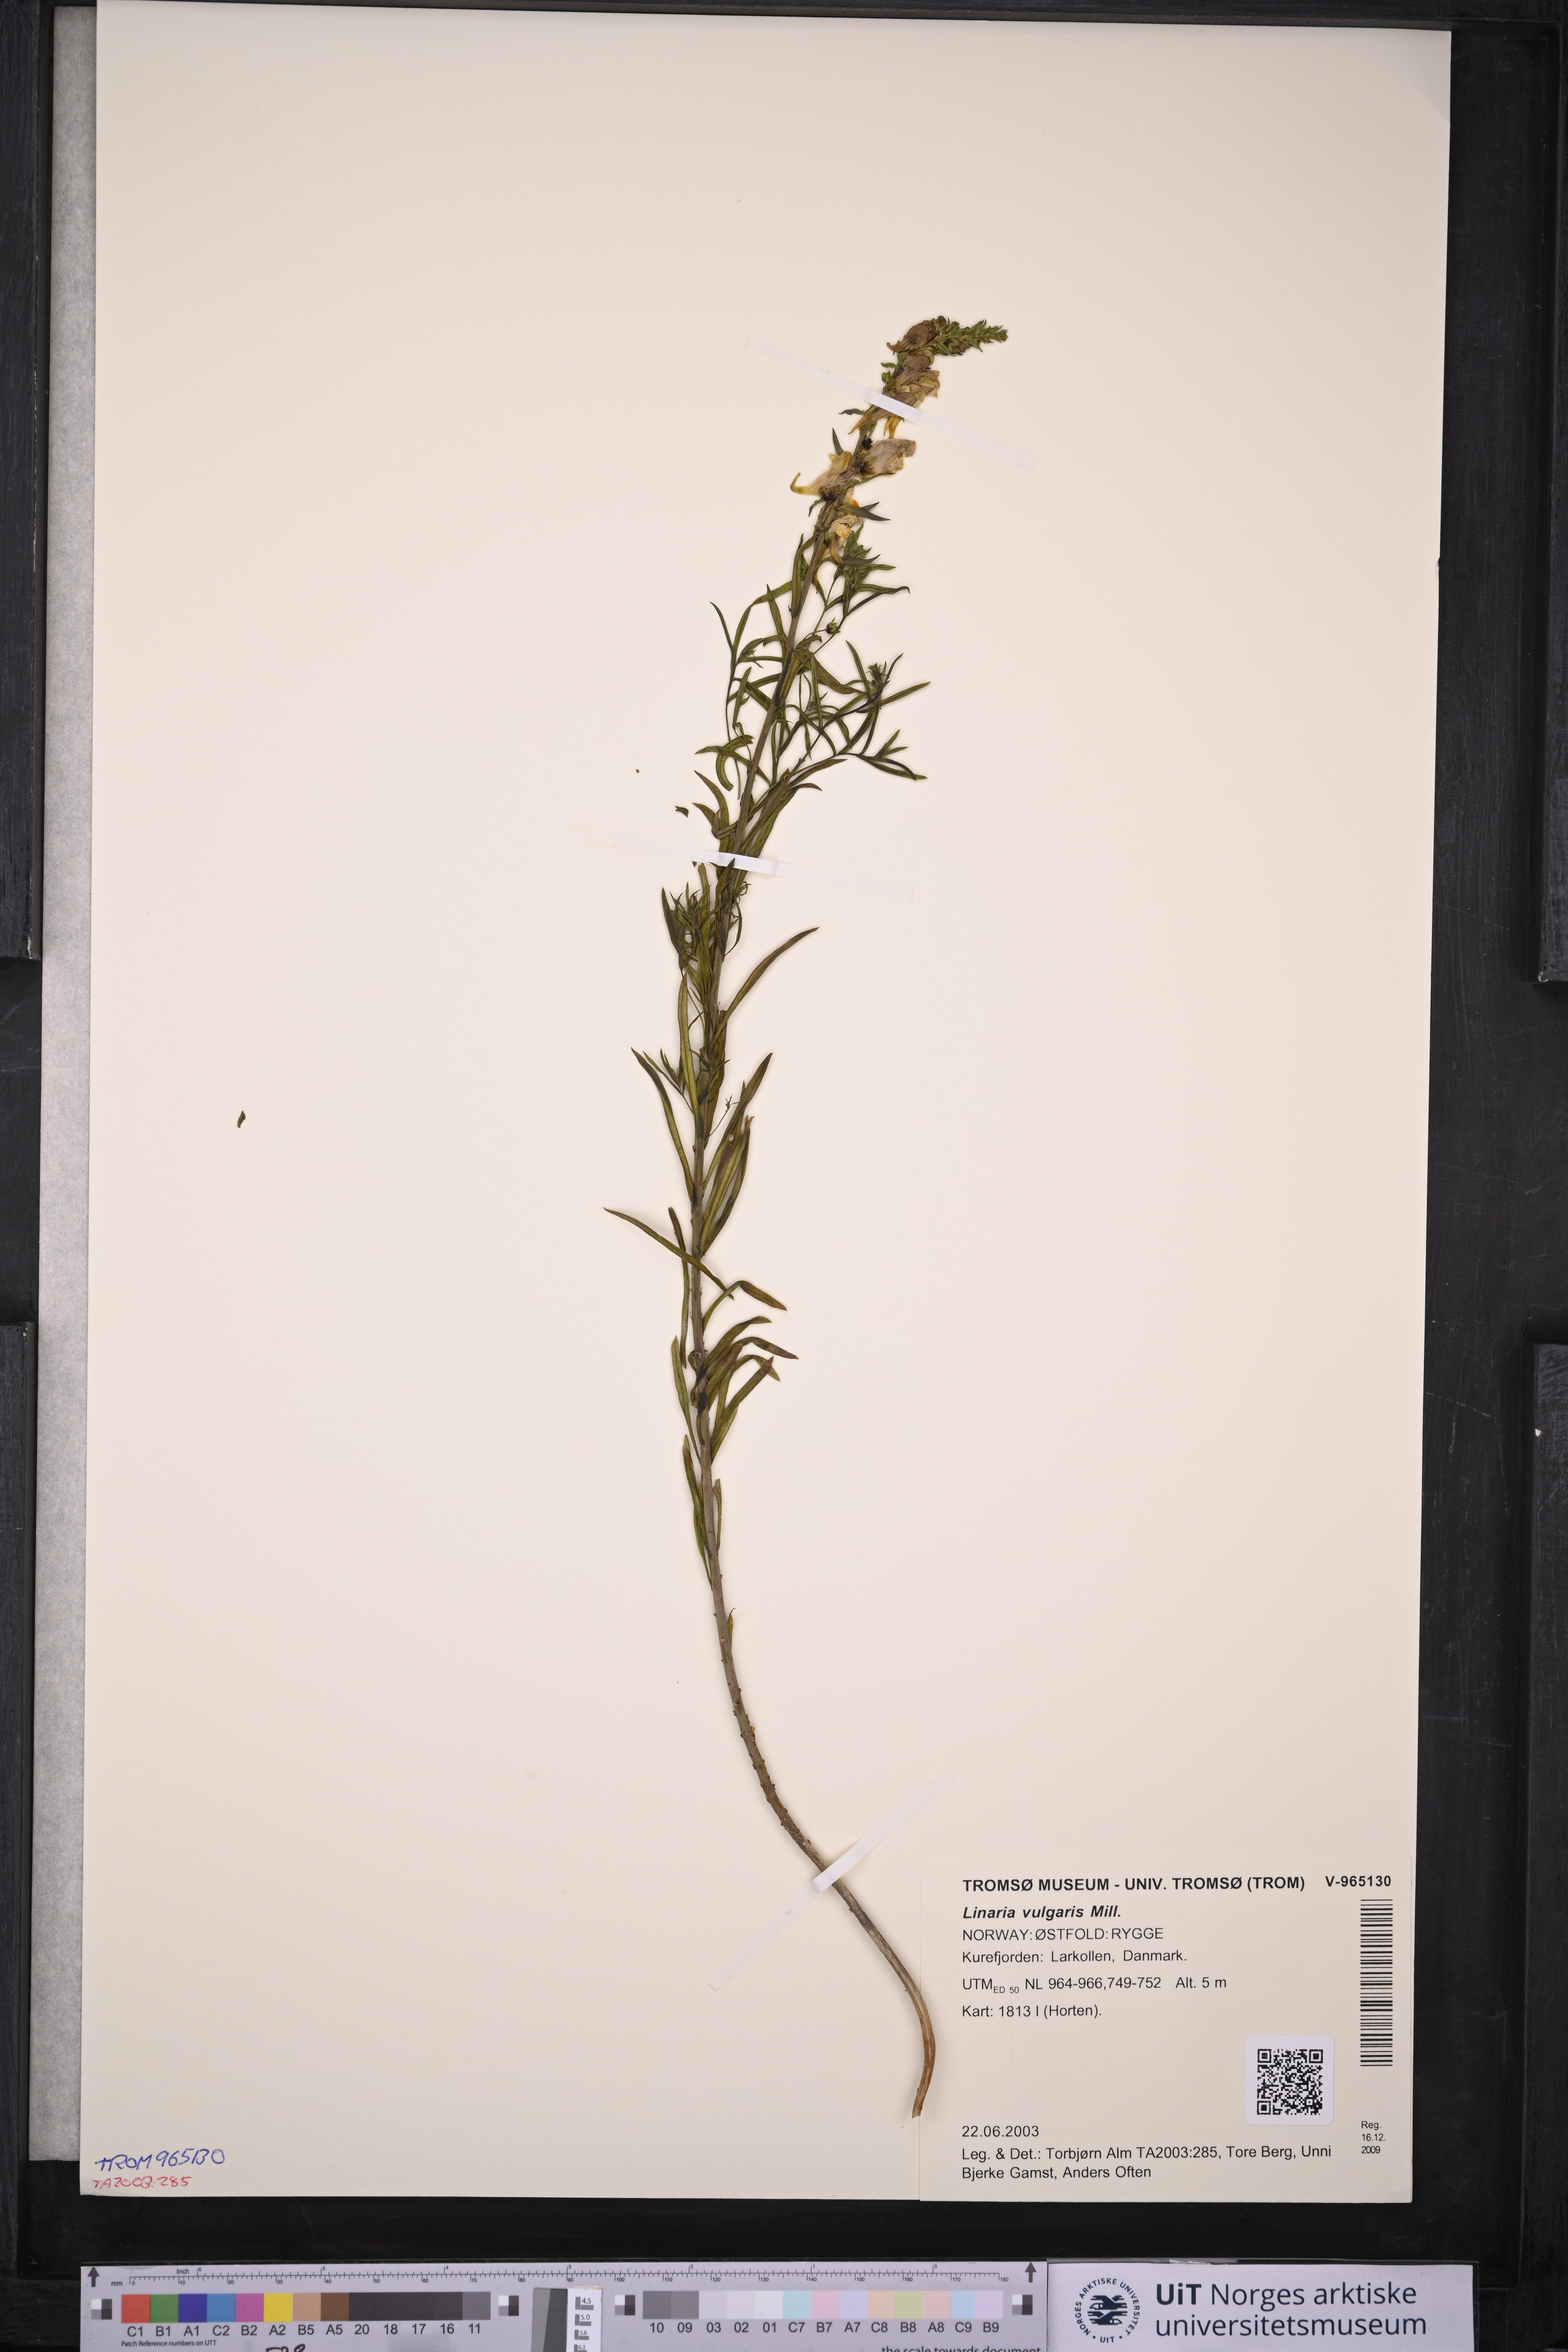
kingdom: Plantae
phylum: Tracheophyta
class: Magnoliopsida
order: Lamiales
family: Plantaginaceae
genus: Linaria
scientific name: Linaria vulgaris
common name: Butter and eggs
